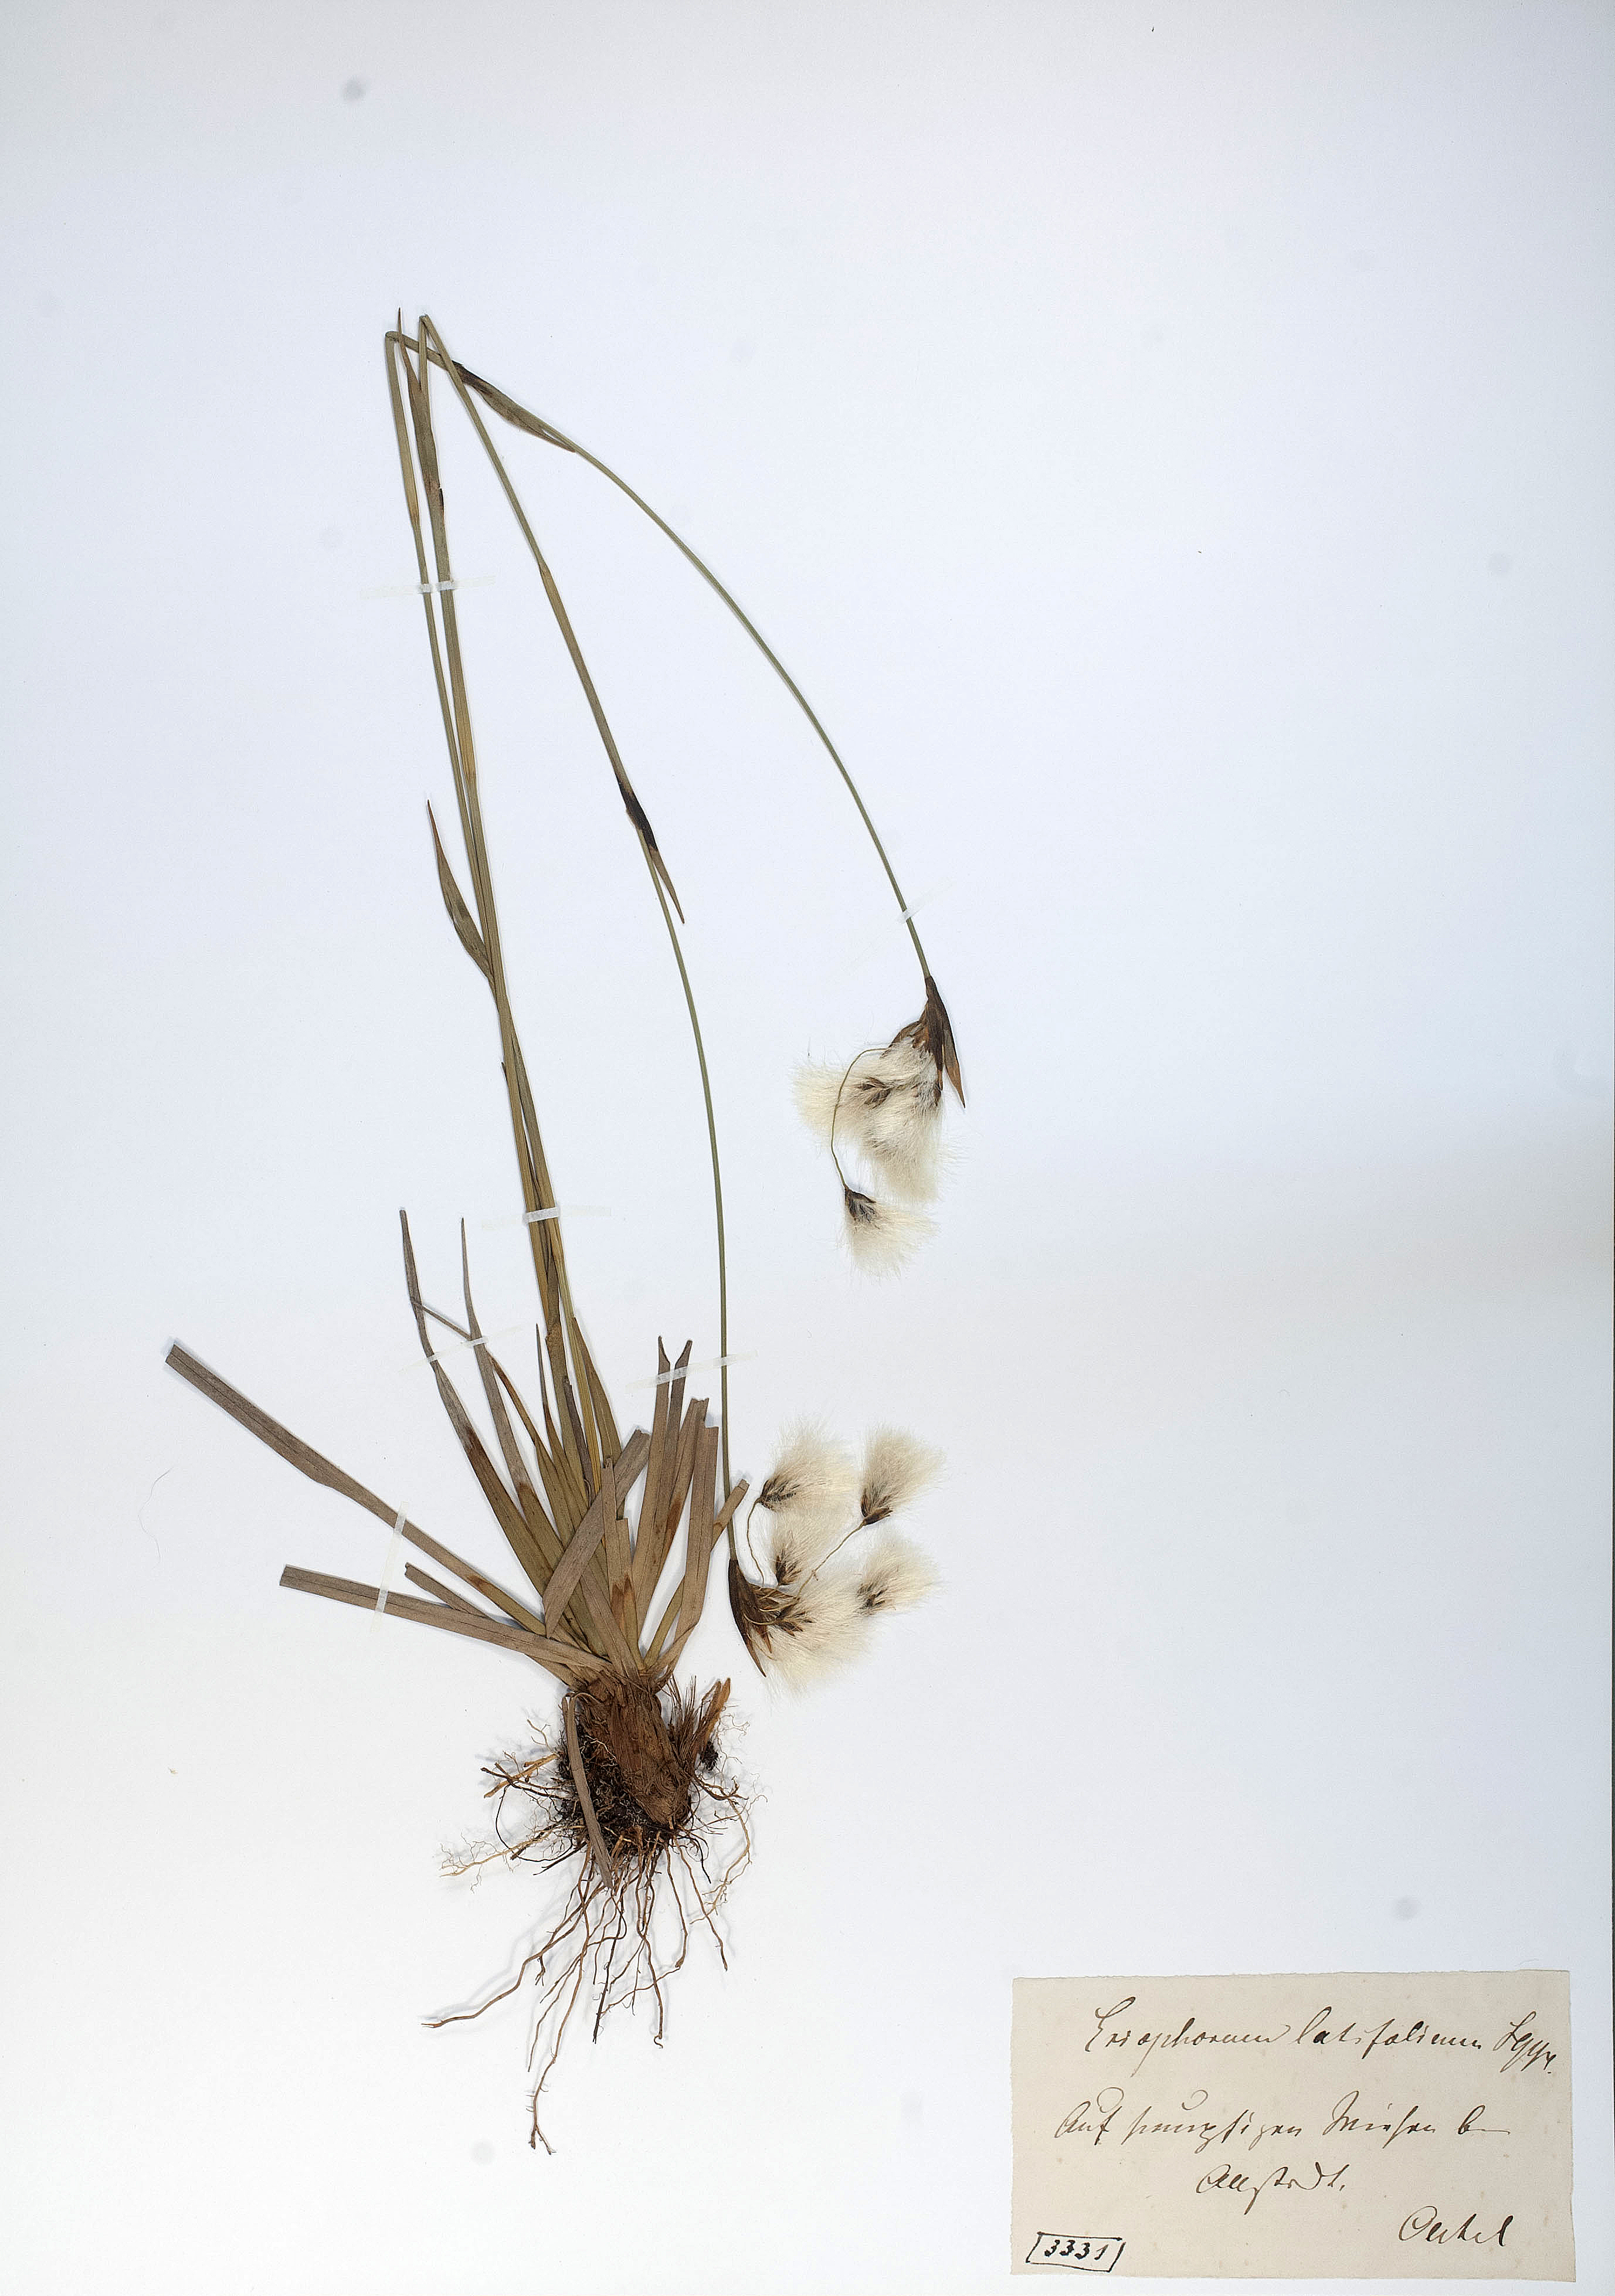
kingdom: Plantae
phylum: Tracheophyta
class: Liliopsida
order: Poales
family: Cyperaceae
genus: Eriophorum
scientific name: Eriophorum latifolium
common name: Broad-leaved cottongrass
